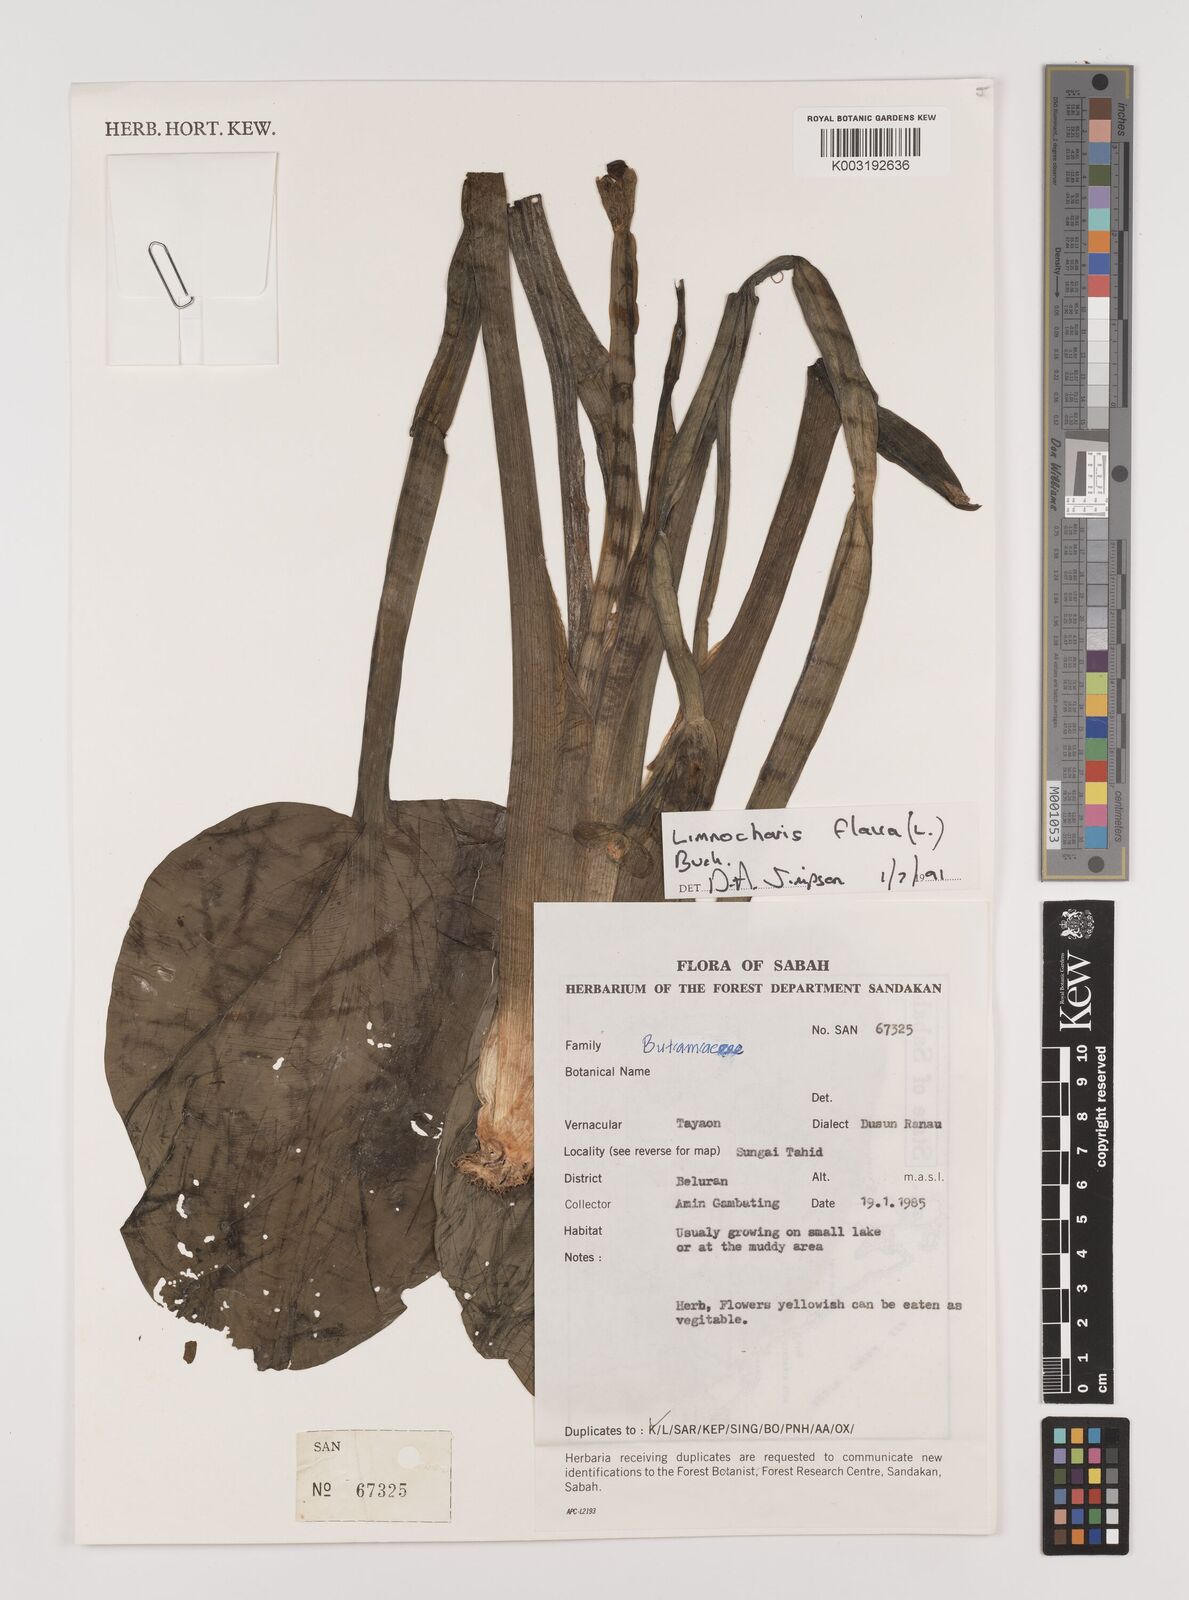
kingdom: Plantae
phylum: Tracheophyta
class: Liliopsida
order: Alismatales
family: Alismataceae
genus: Limnocharis
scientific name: Limnocharis flava
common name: Sawah-flower-rush
